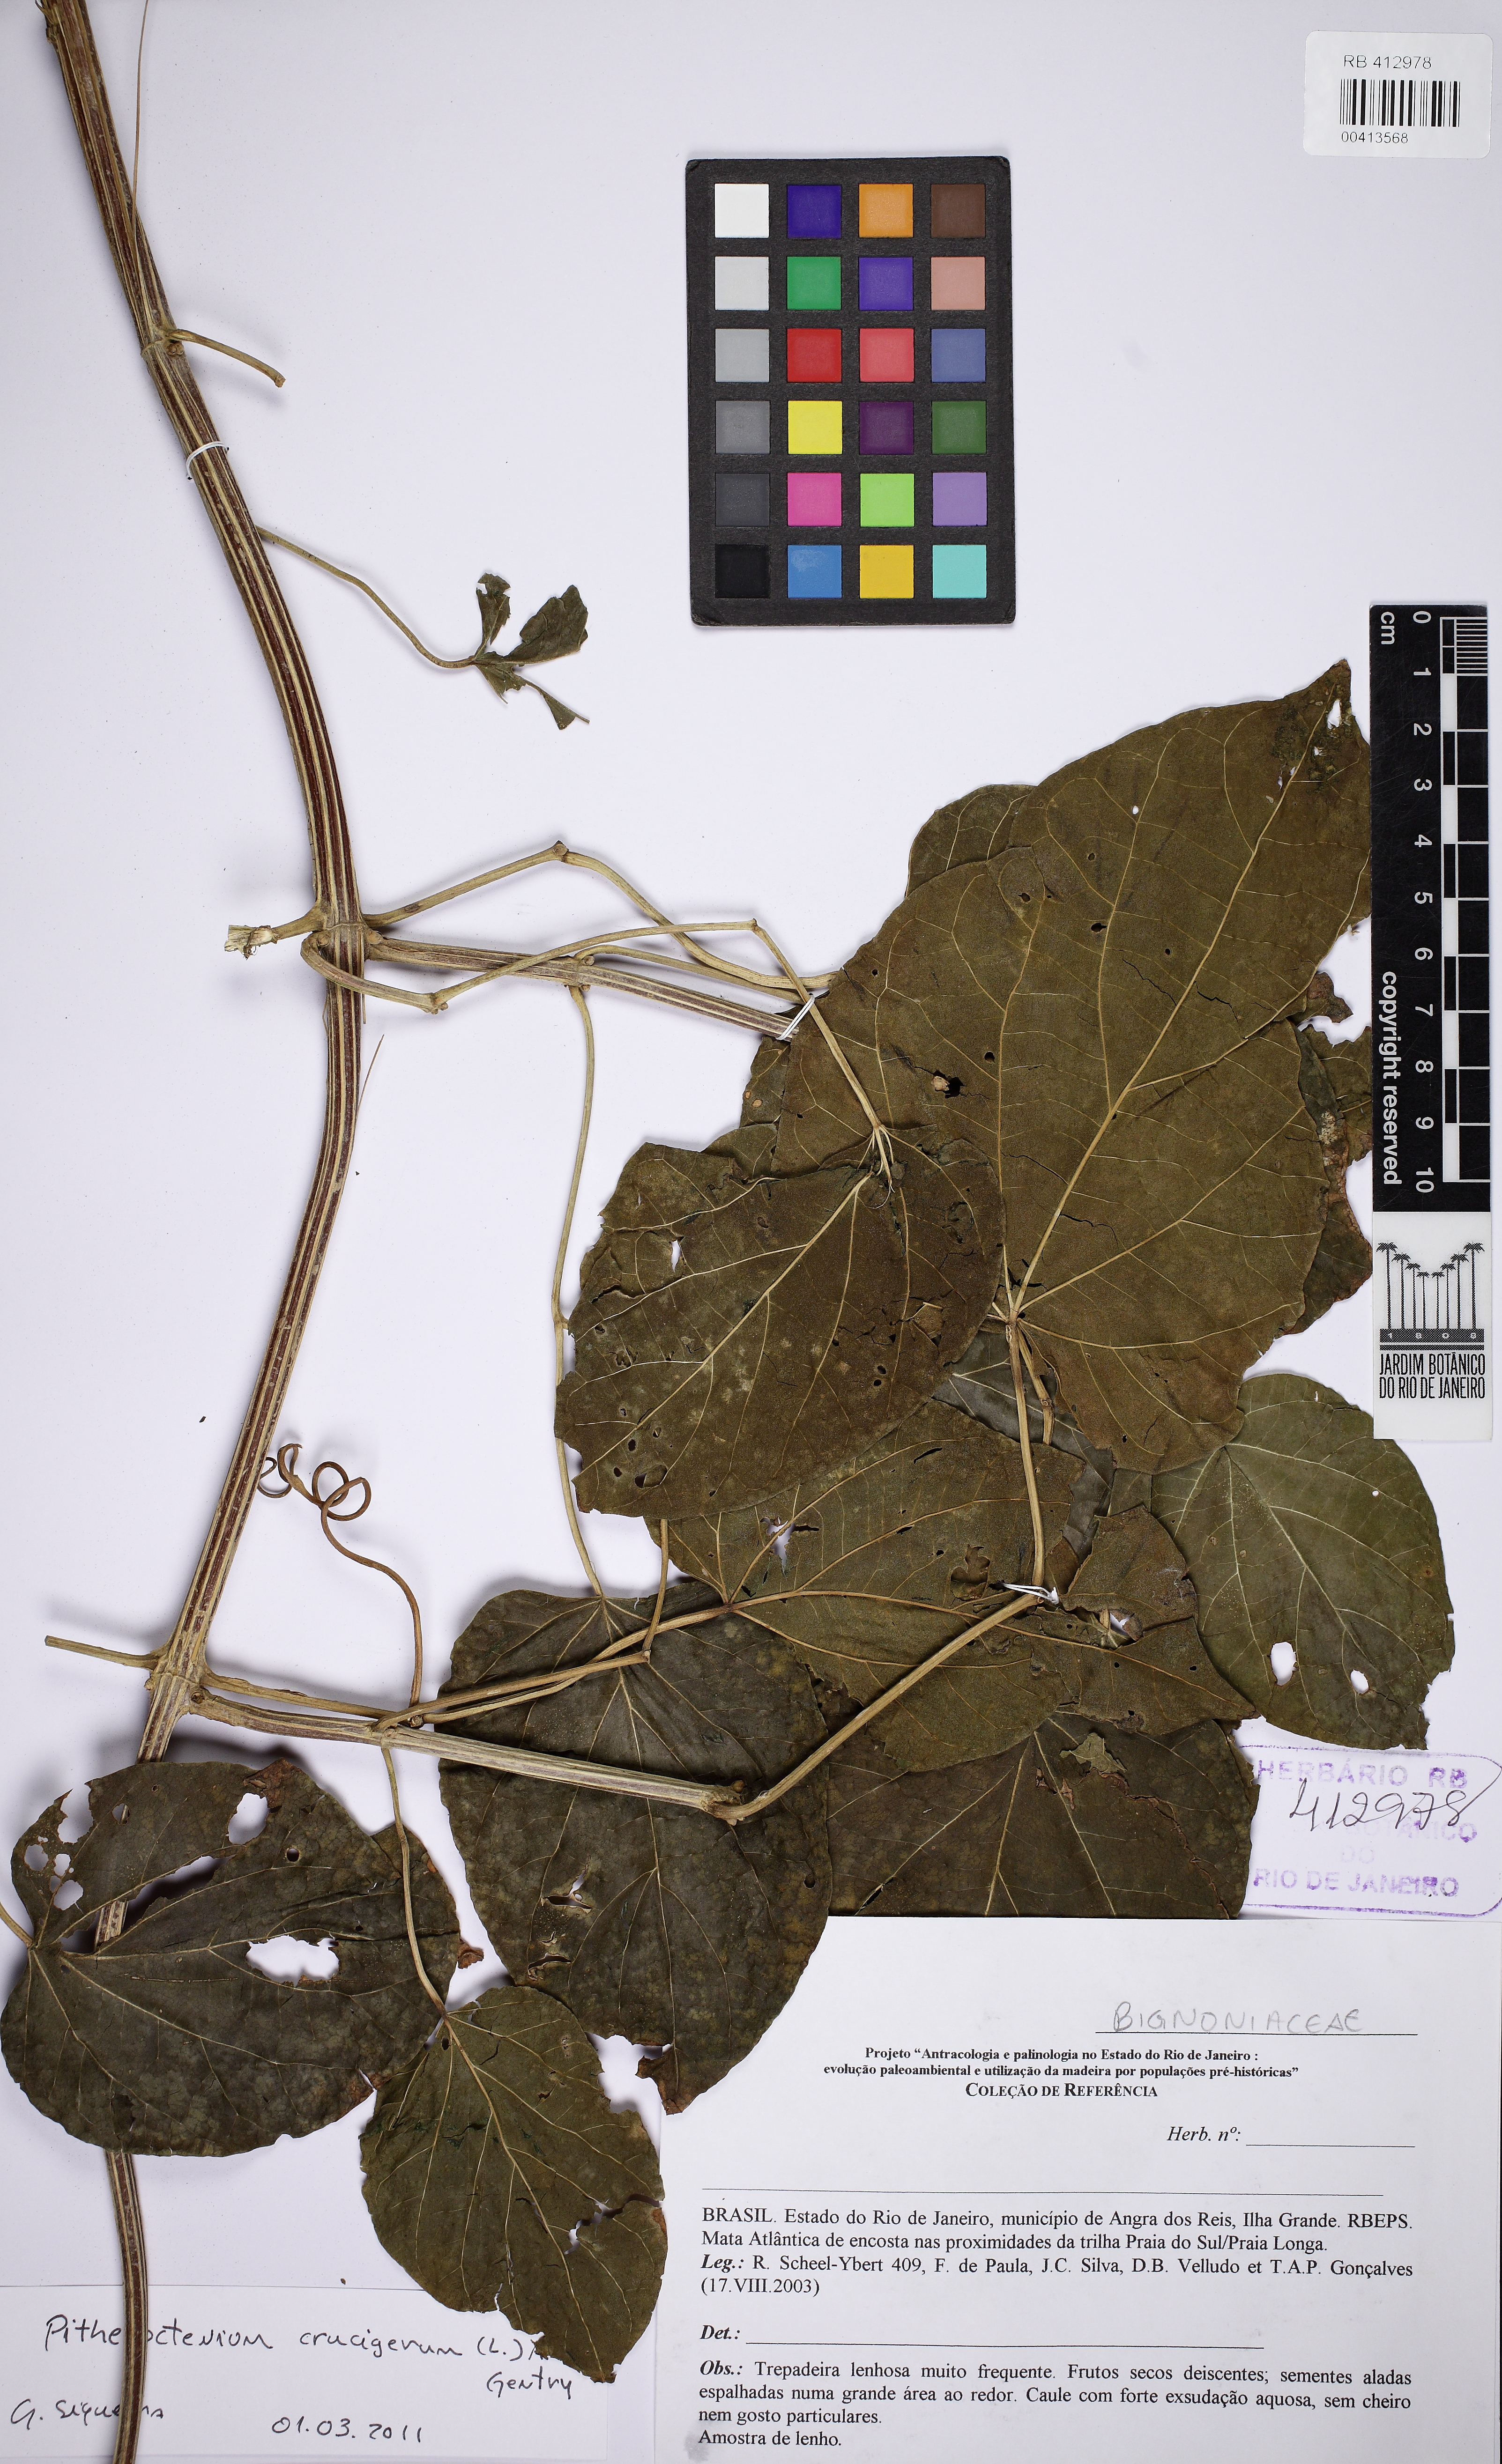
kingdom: Plantae
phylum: Tracheophyta
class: Magnoliopsida
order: Lamiales
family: Bignoniaceae
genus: Amphilophium
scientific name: Amphilophium crucigerum
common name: Monkey comb
